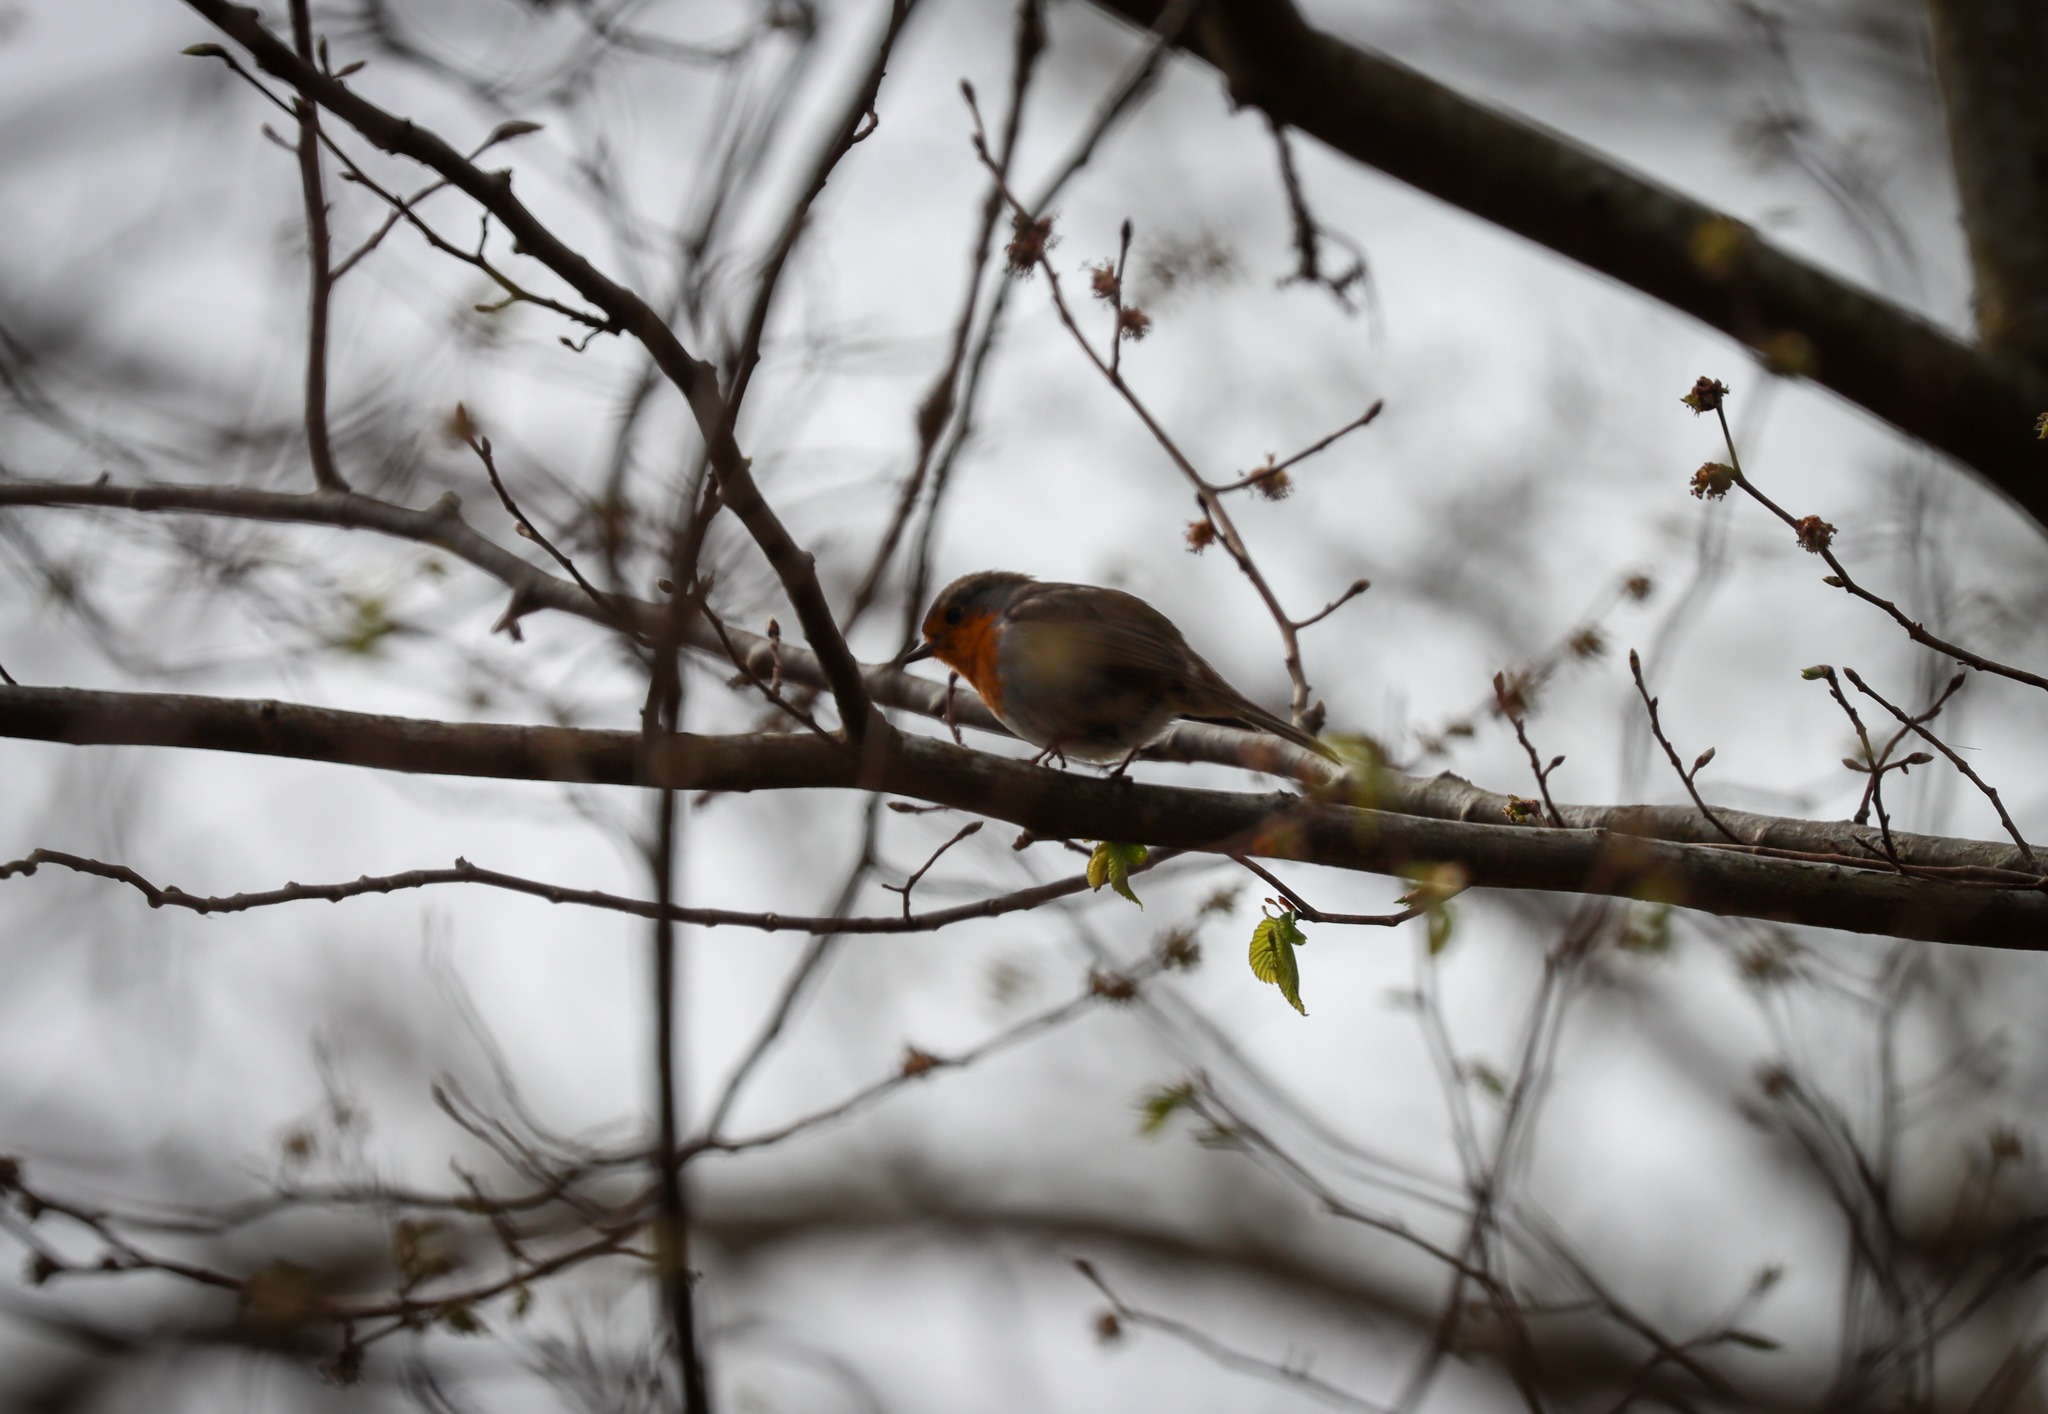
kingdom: Animalia
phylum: Chordata
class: Aves
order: Passeriformes
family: Muscicapidae
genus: Erithacus
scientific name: Erithacus rubecula
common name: Rødhals/rødkælk
